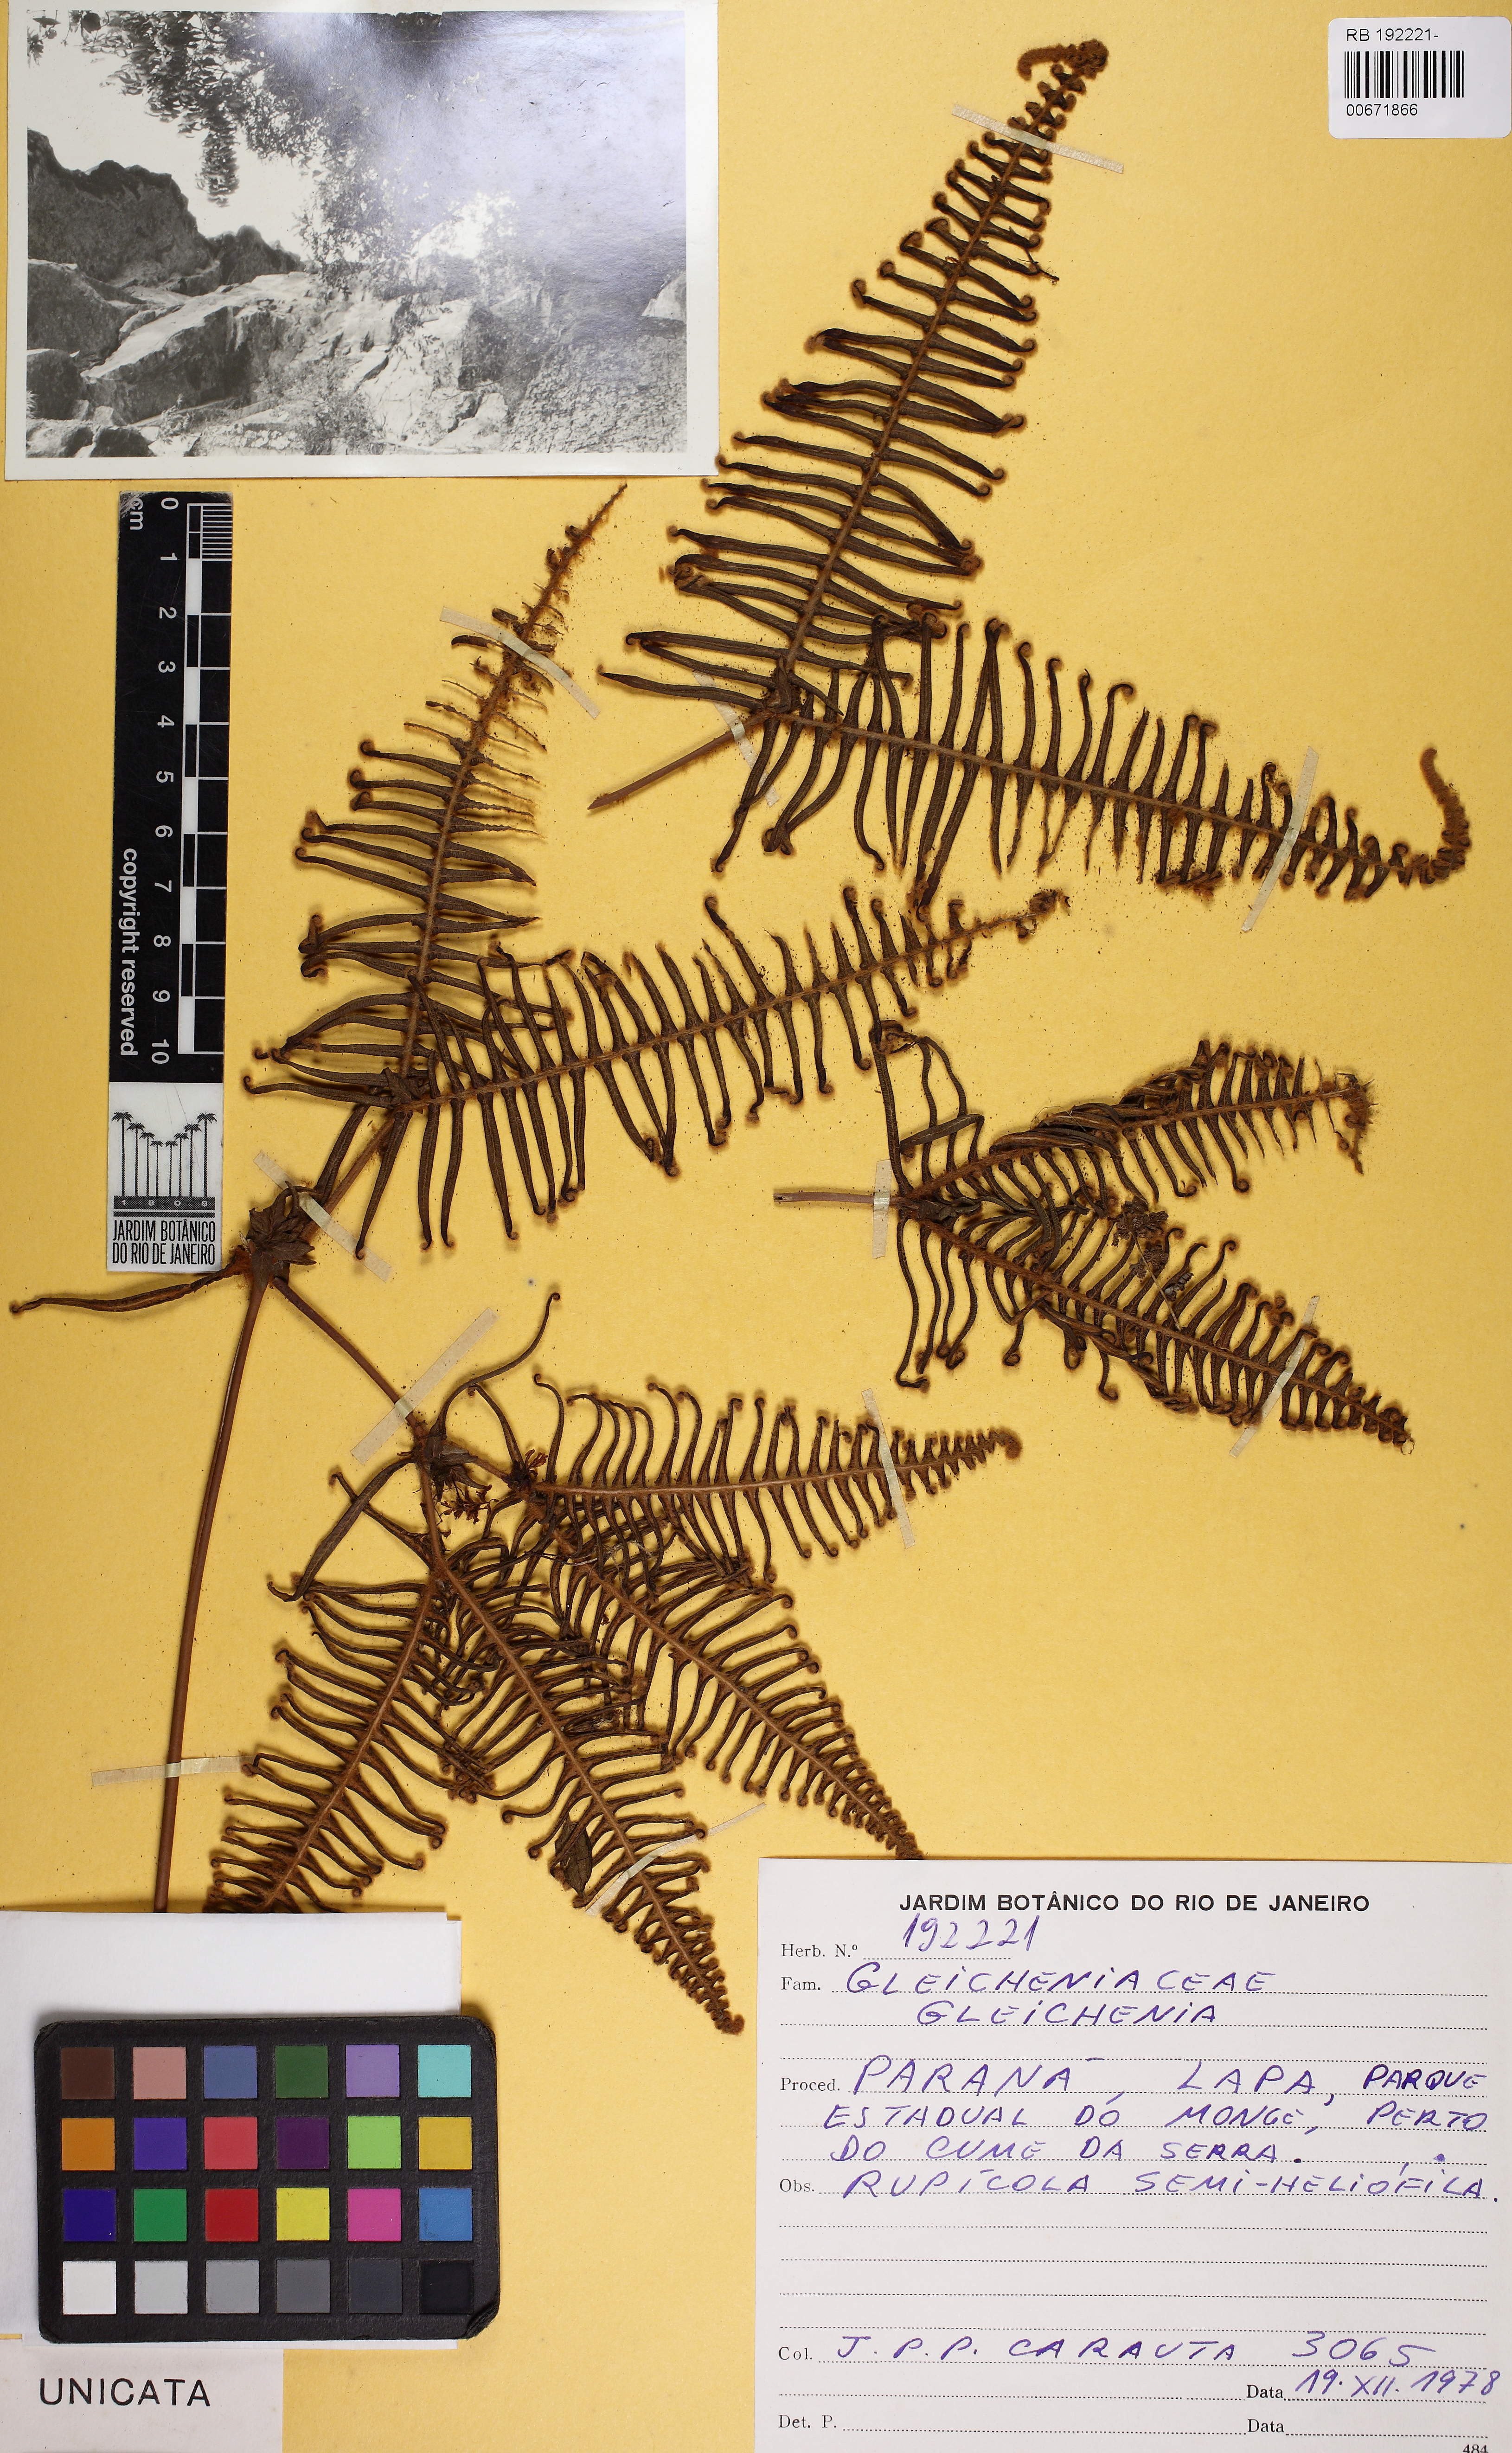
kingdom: Plantae
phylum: Tracheophyta
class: Polypodiopsida
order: Gleicheniales
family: Gleicheniaceae
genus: Dicranopteris
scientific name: Dicranopteris nervosa
